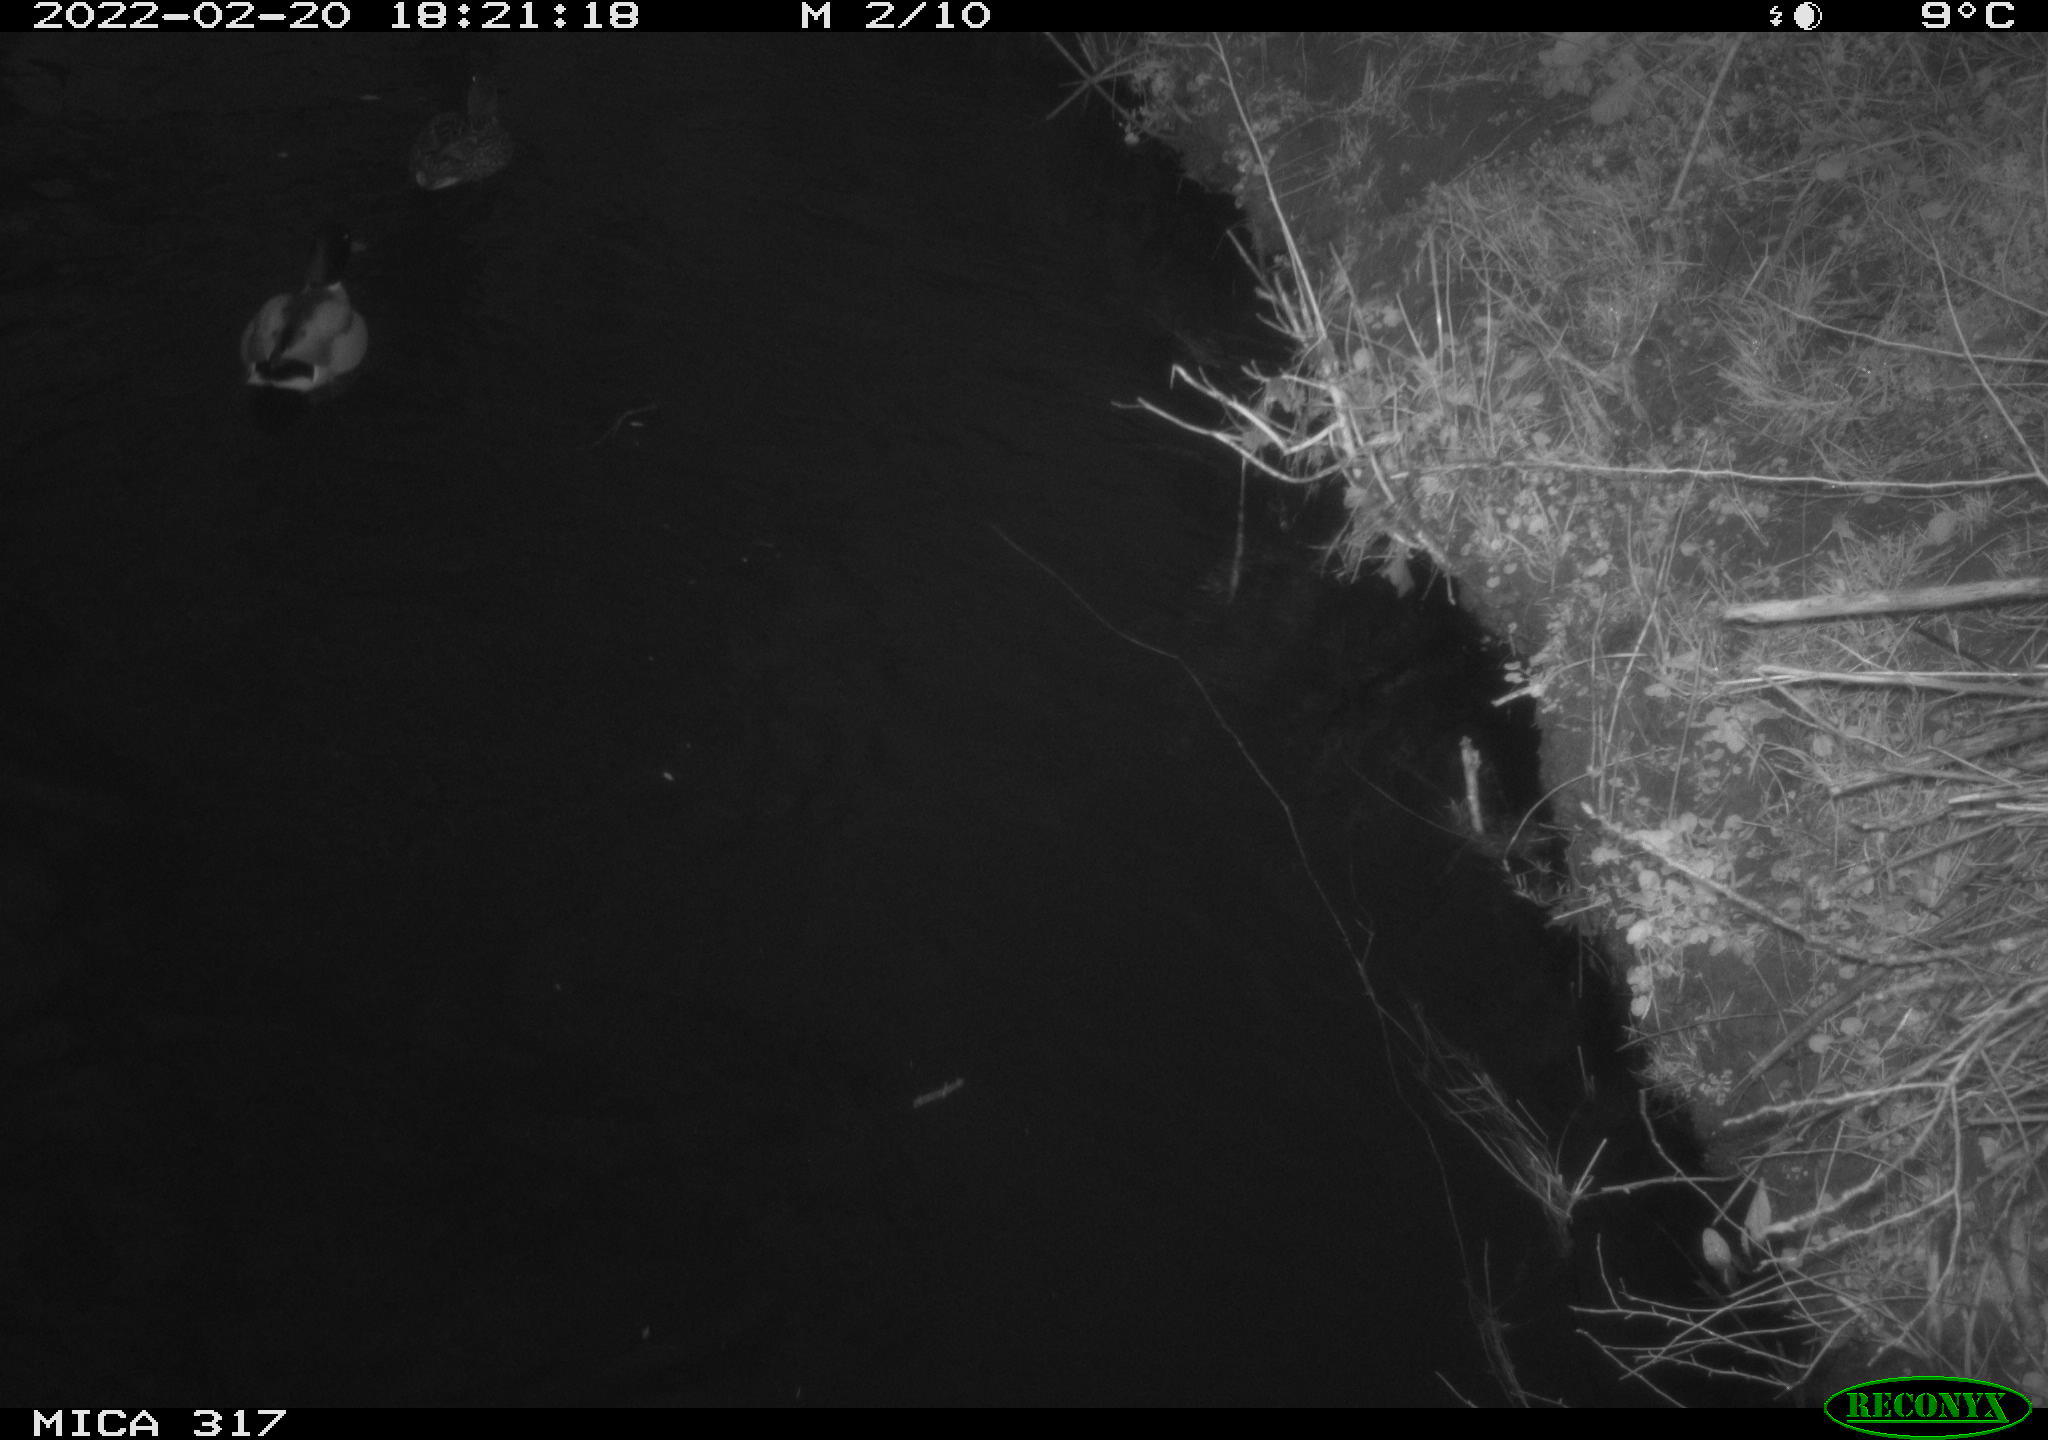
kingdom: Animalia
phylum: Chordata
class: Aves
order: Anseriformes
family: Anatidae
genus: Anas
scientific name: Anas platyrhynchos
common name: Mallard
